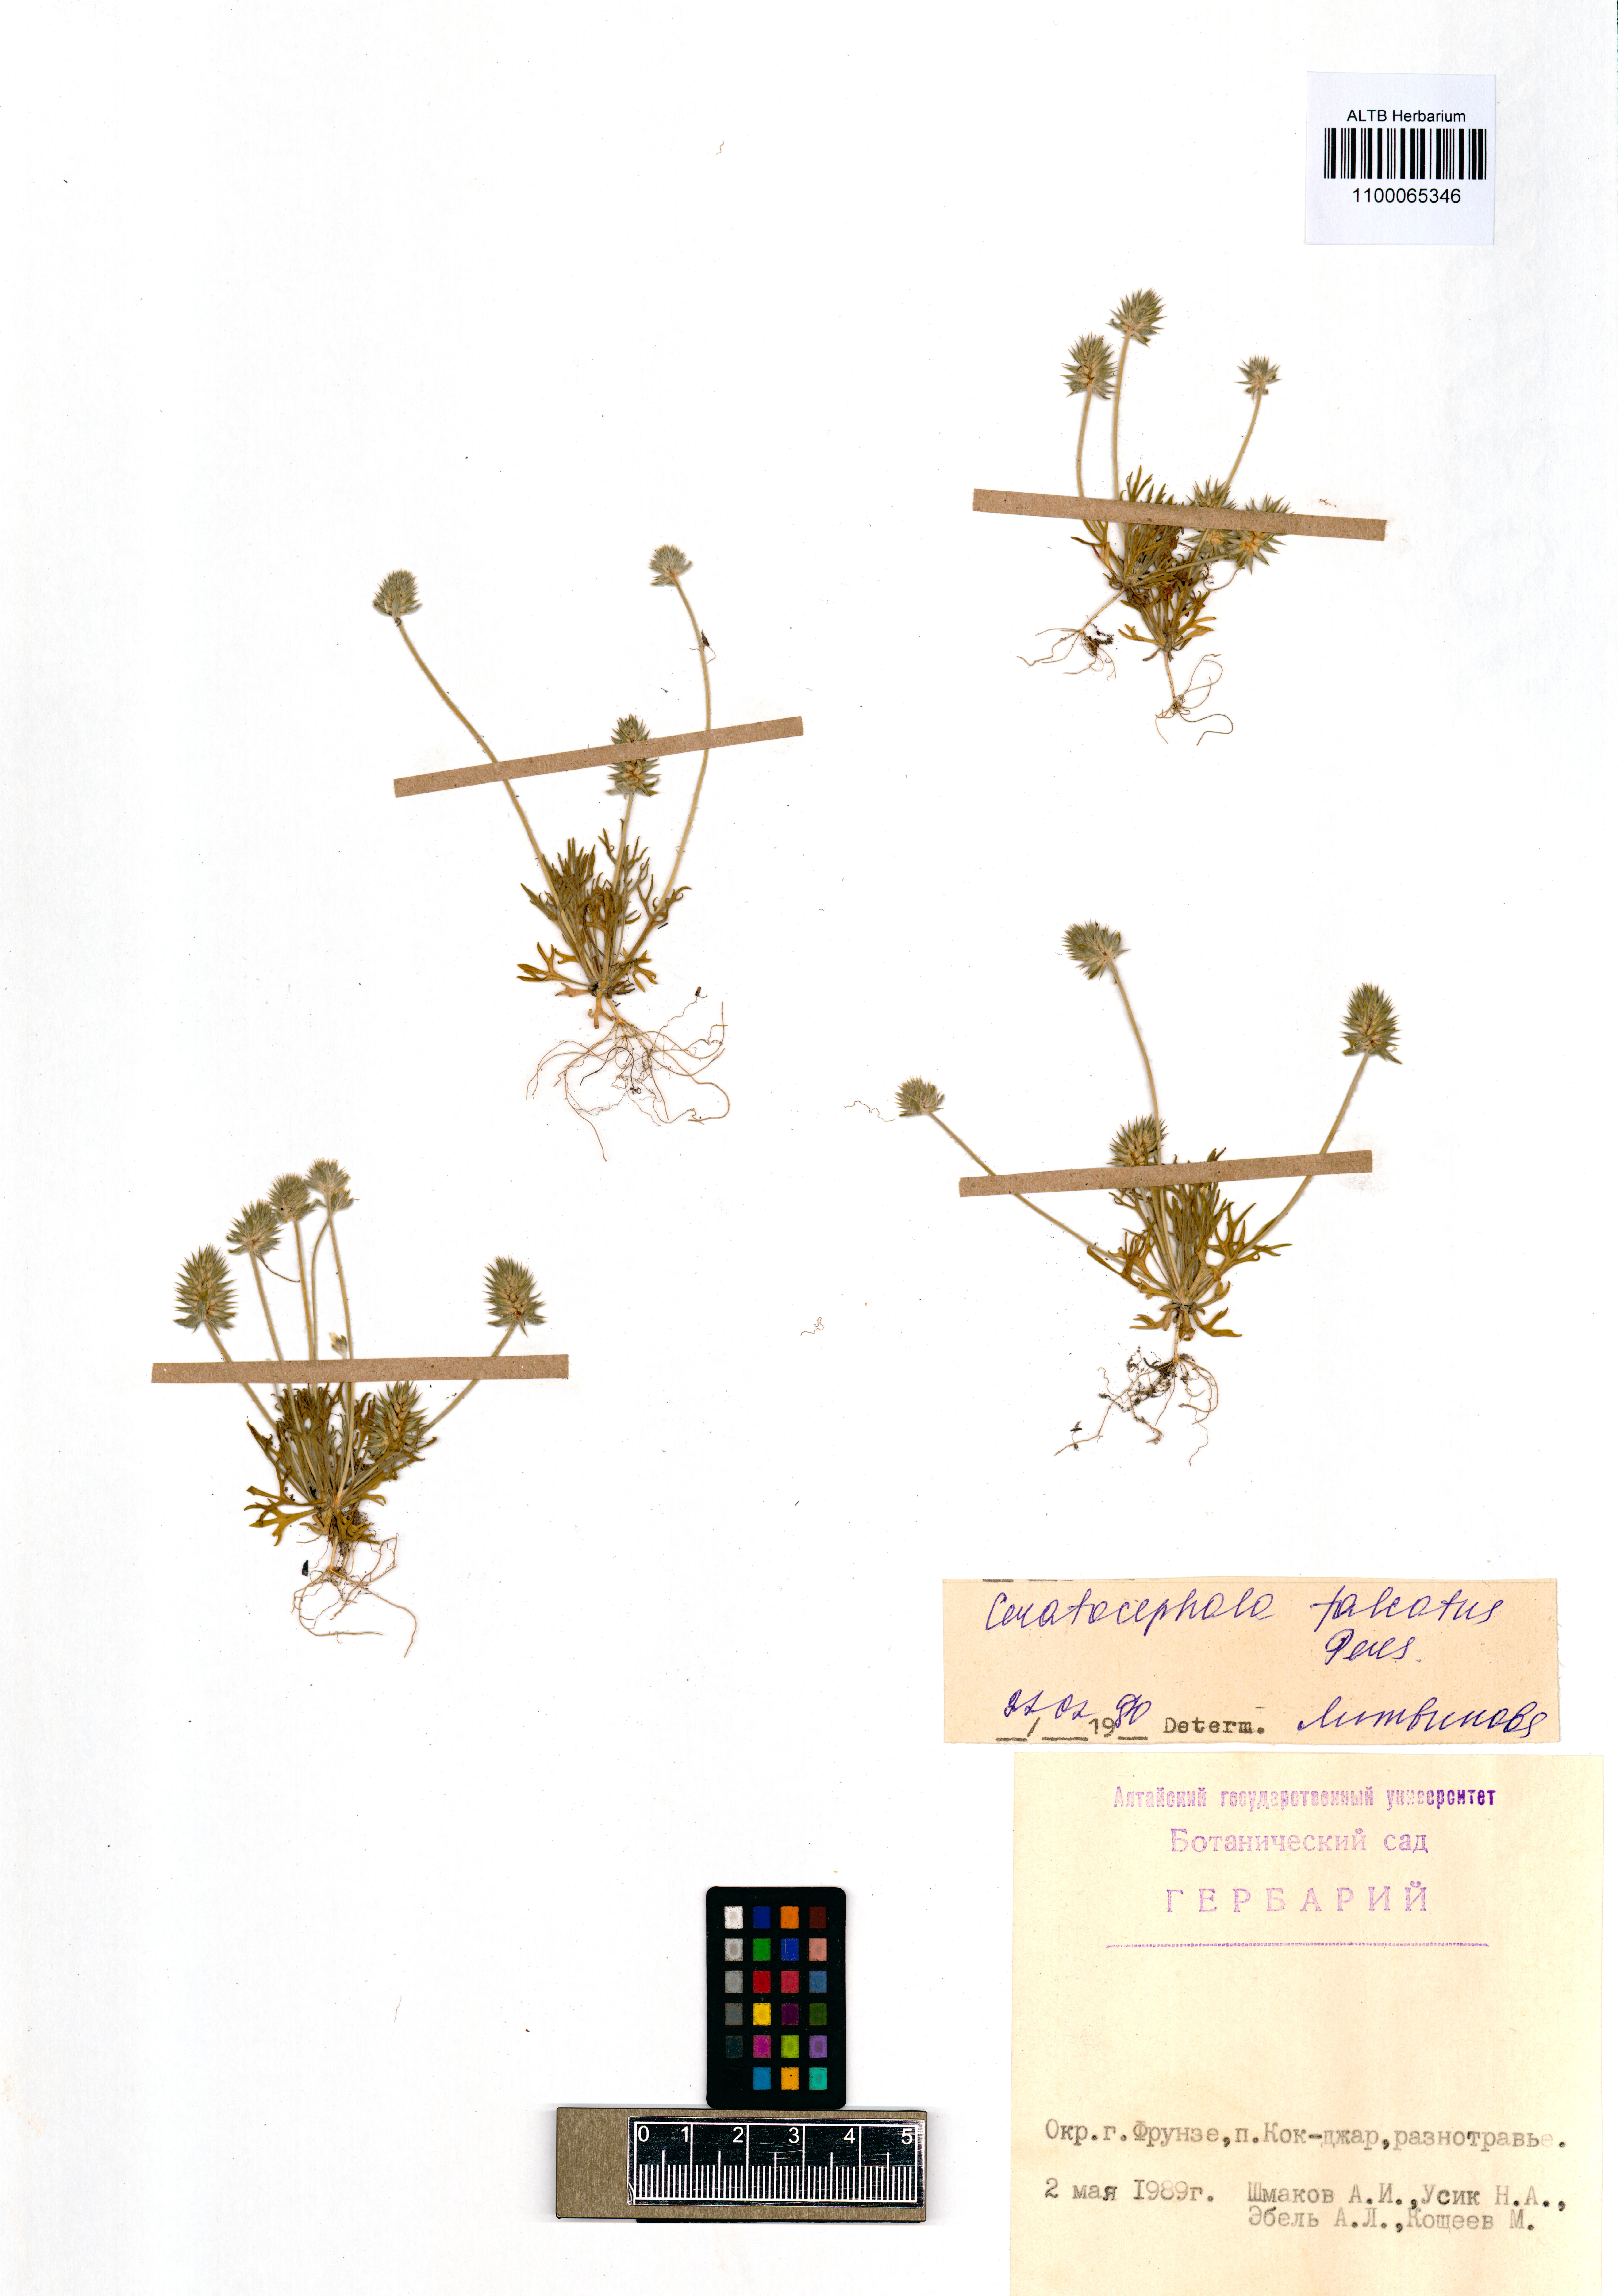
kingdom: Plantae
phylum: Tracheophyta
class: Magnoliopsida
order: Ranunculales
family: Ranunculaceae
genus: Ceratocephala
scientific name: Ceratocephala falcata
